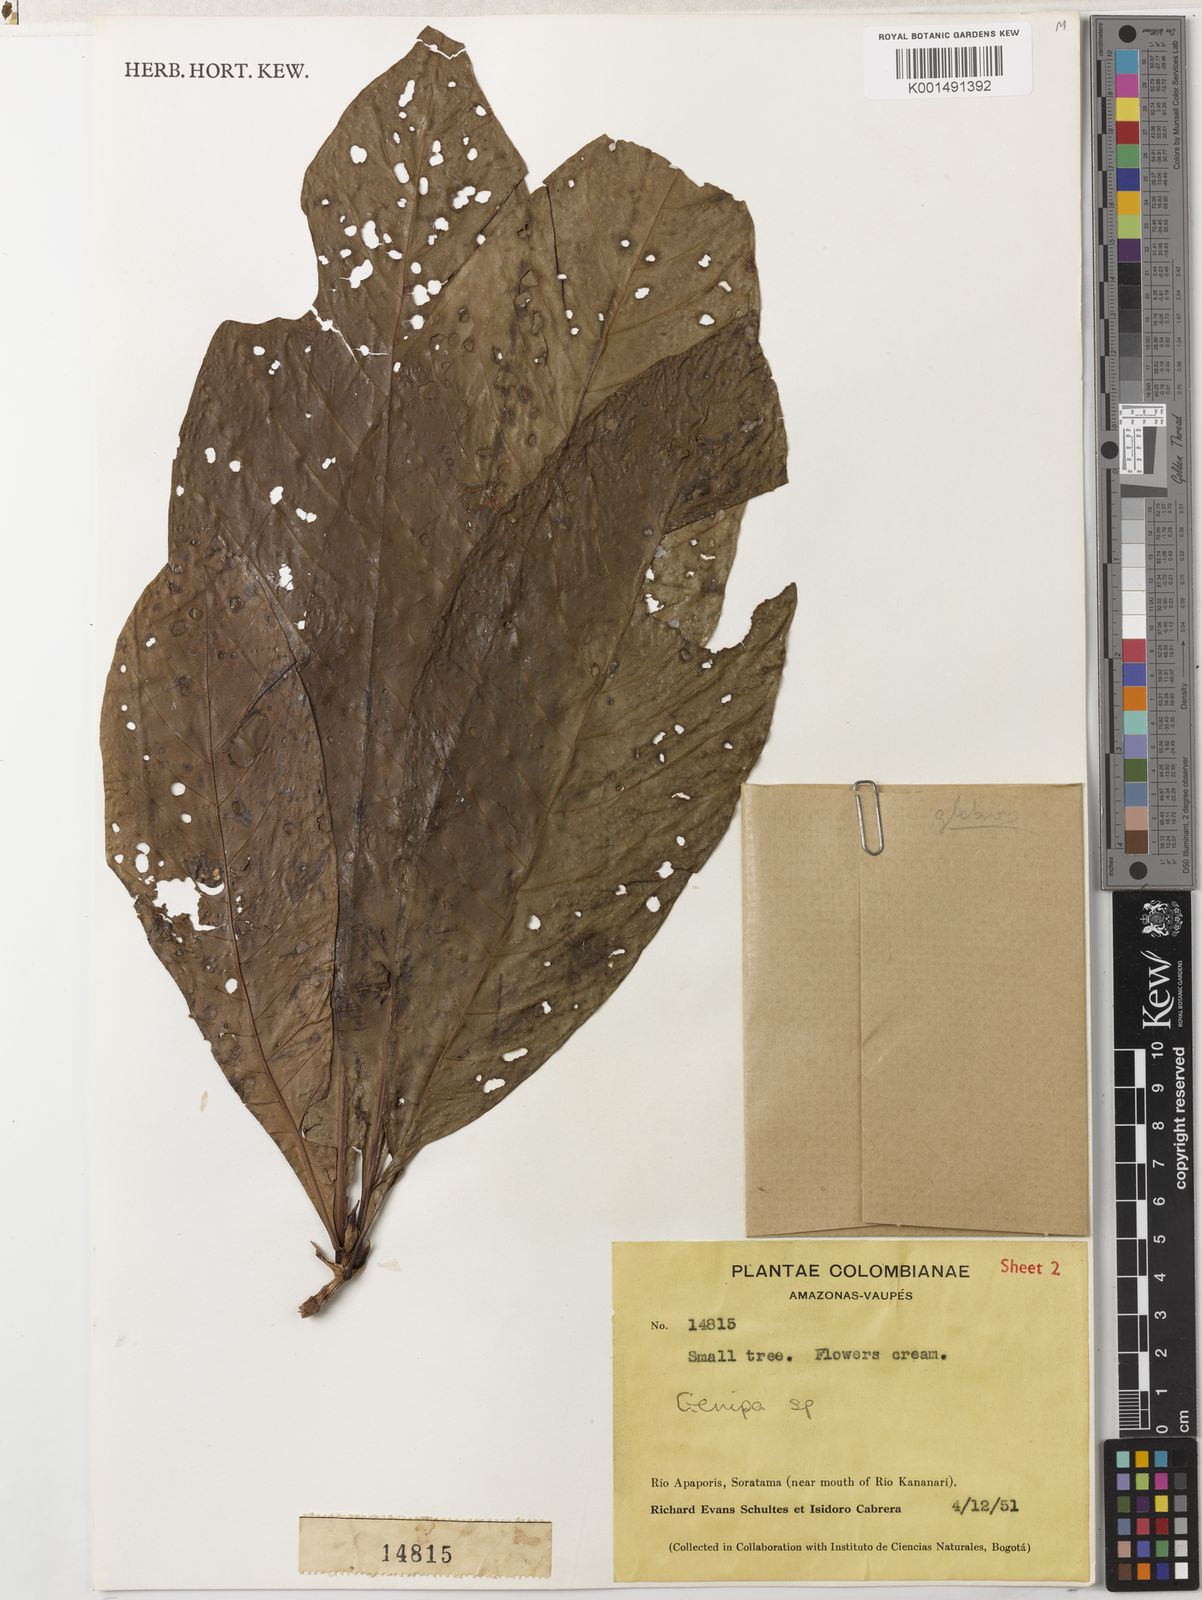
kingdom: Plantae
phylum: Tracheophyta
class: Magnoliopsida
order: Gentianales
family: Rubiaceae
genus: Genipa
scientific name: Genipa americana
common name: Genipap
